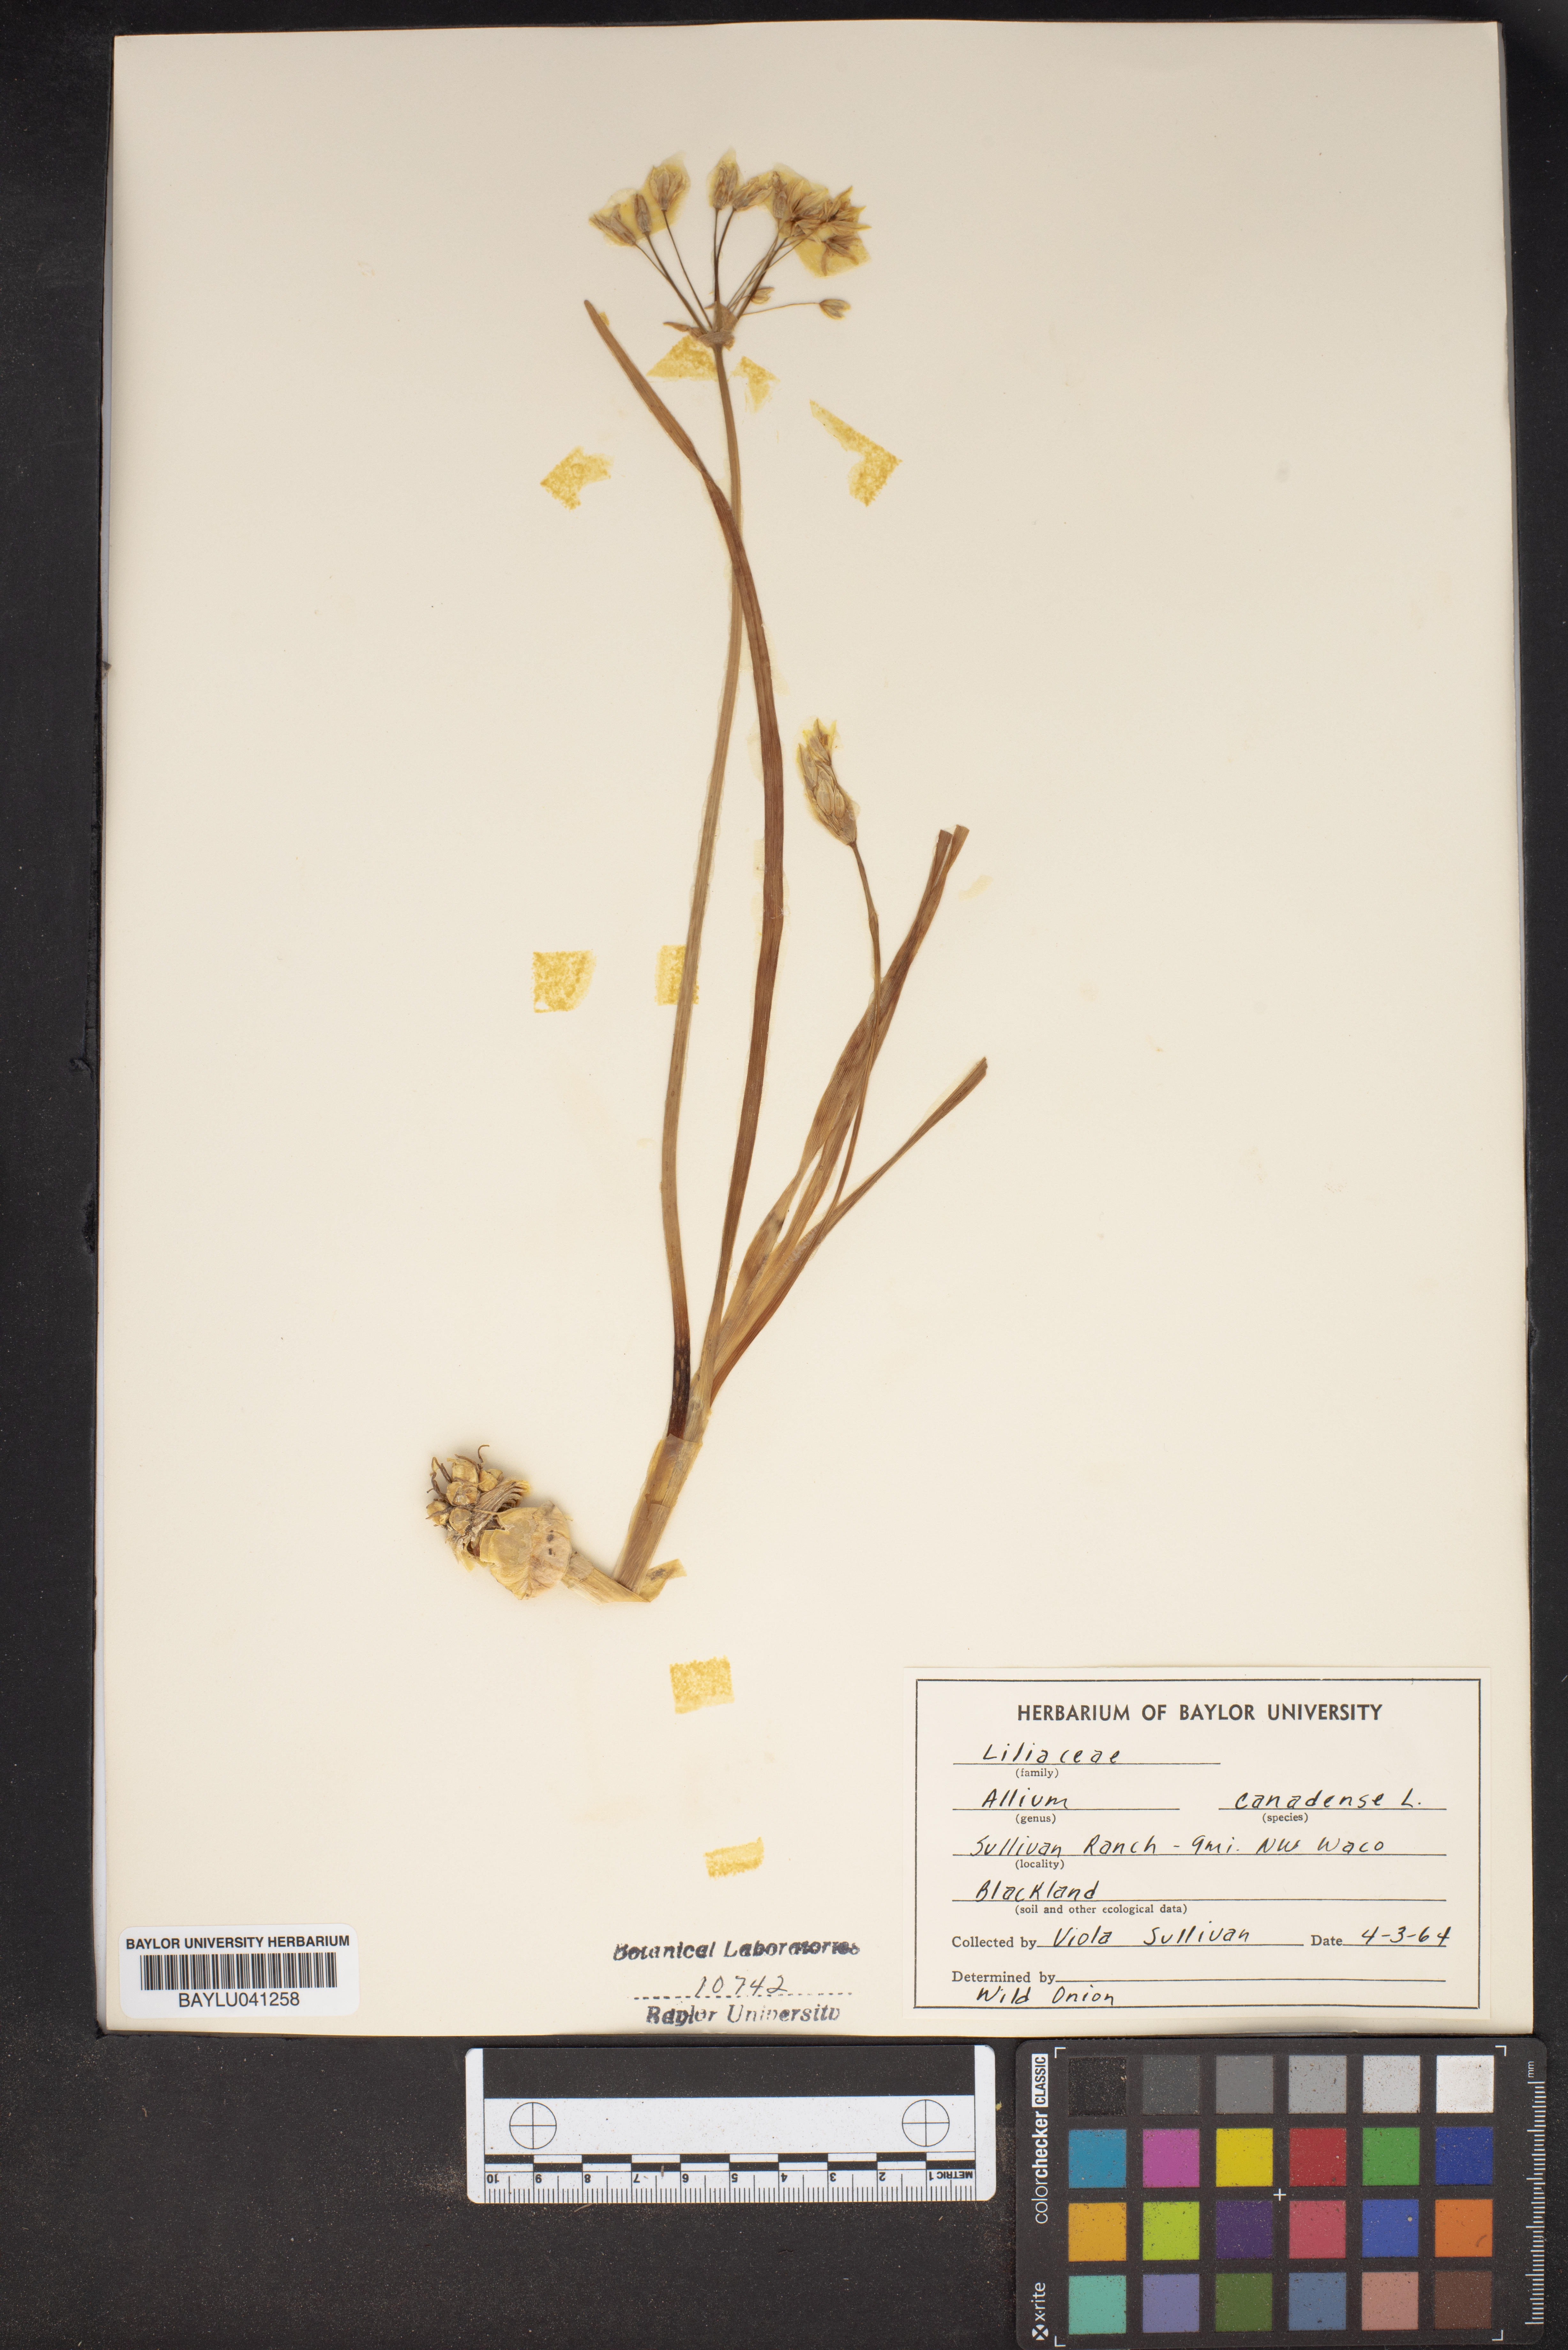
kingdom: Plantae
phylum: Tracheophyta
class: Liliopsida
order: Asparagales
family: Amaryllidaceae
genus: Allium
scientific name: Allium canadense
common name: Meadow garlic
